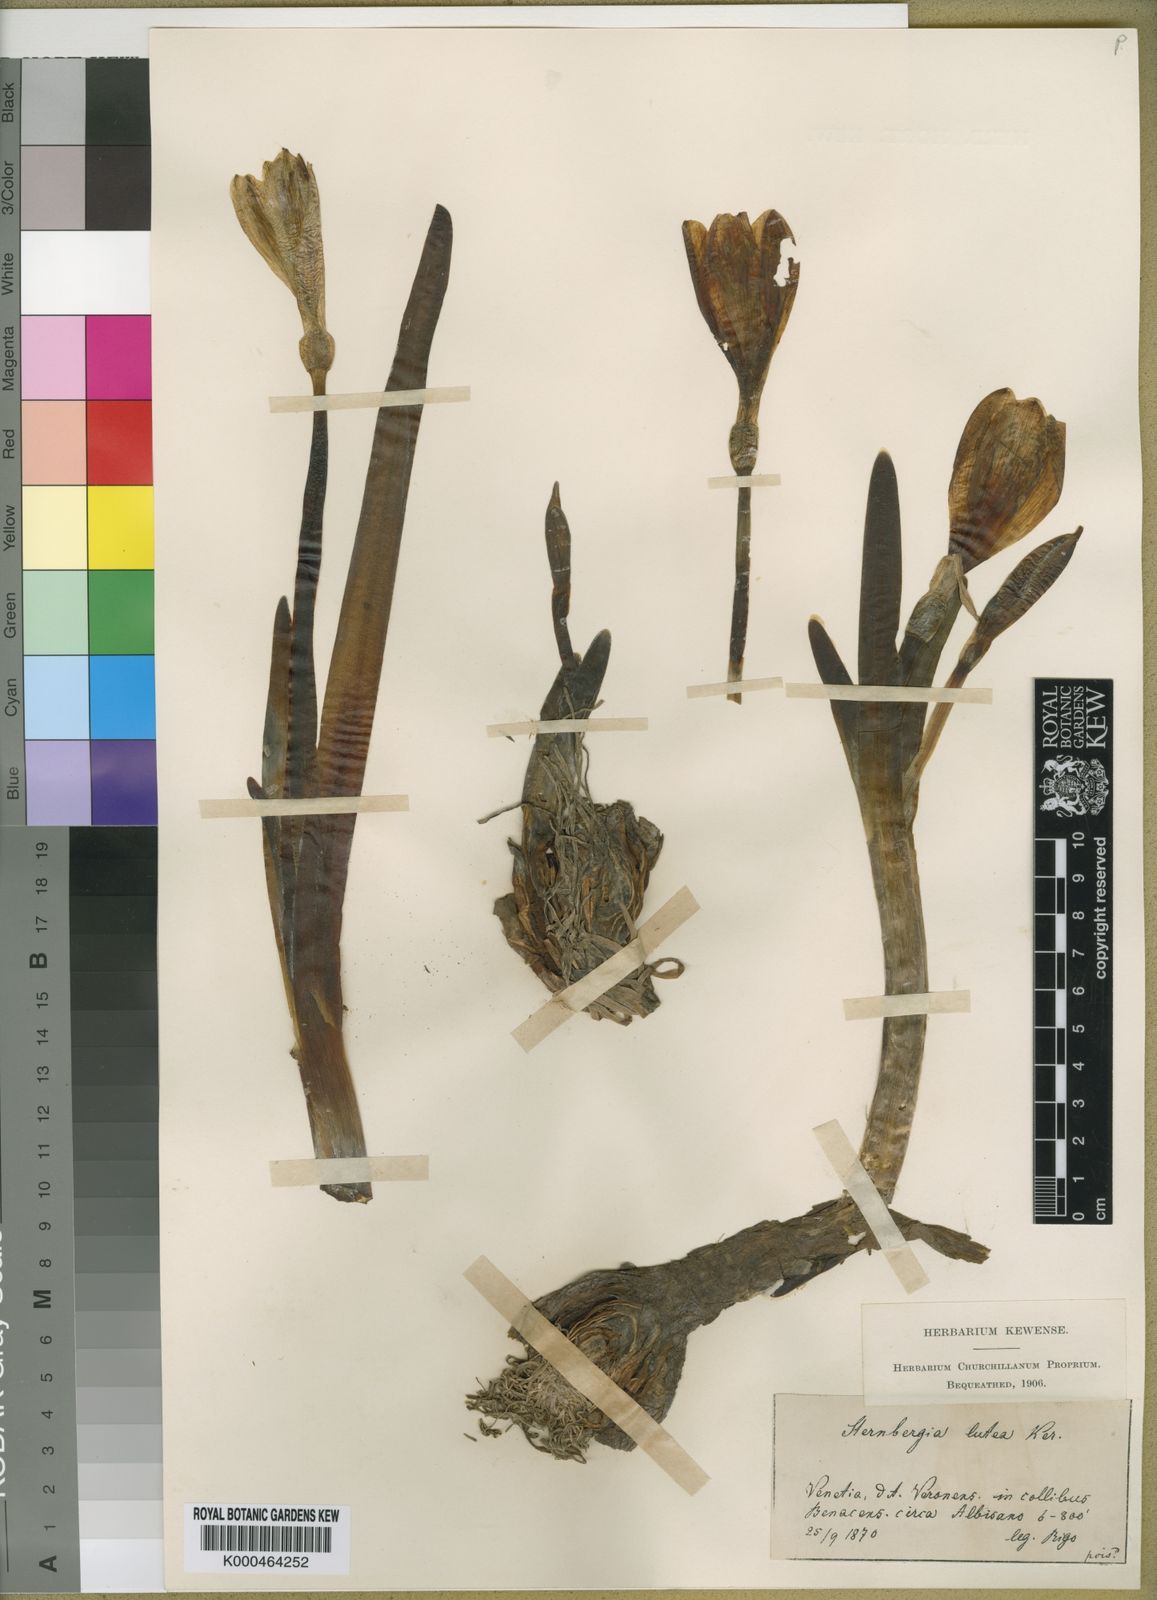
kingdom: Plantae
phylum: Tracheophyta
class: Liliopsida
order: Asparagales
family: Amaryllidaceae
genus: Sternbergia
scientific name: Sternbergia
